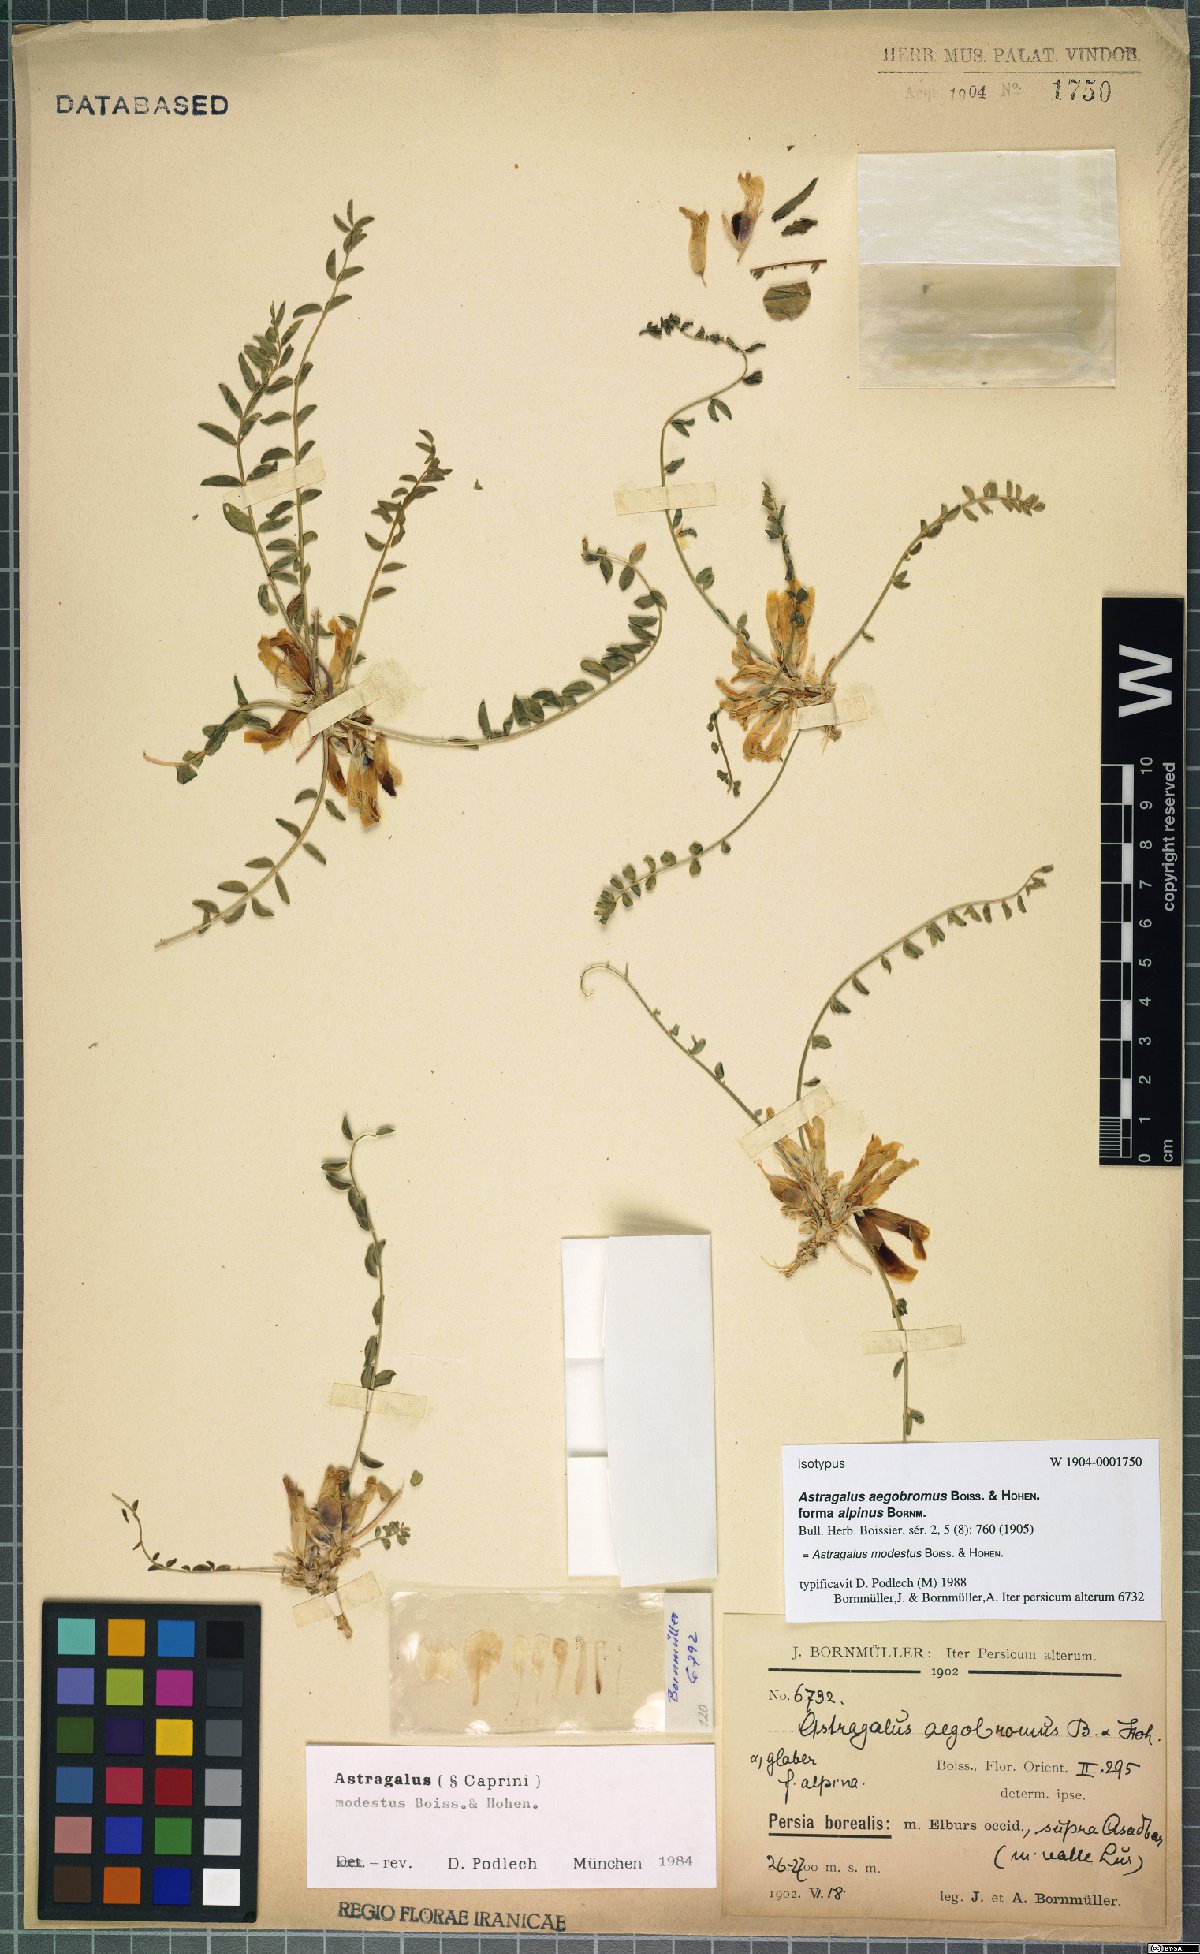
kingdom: Plantae
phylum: Tracheophyta
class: Magnoliopsida
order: Fabales
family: Fabaceae
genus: Astragalus
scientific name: Astragalus modestus
